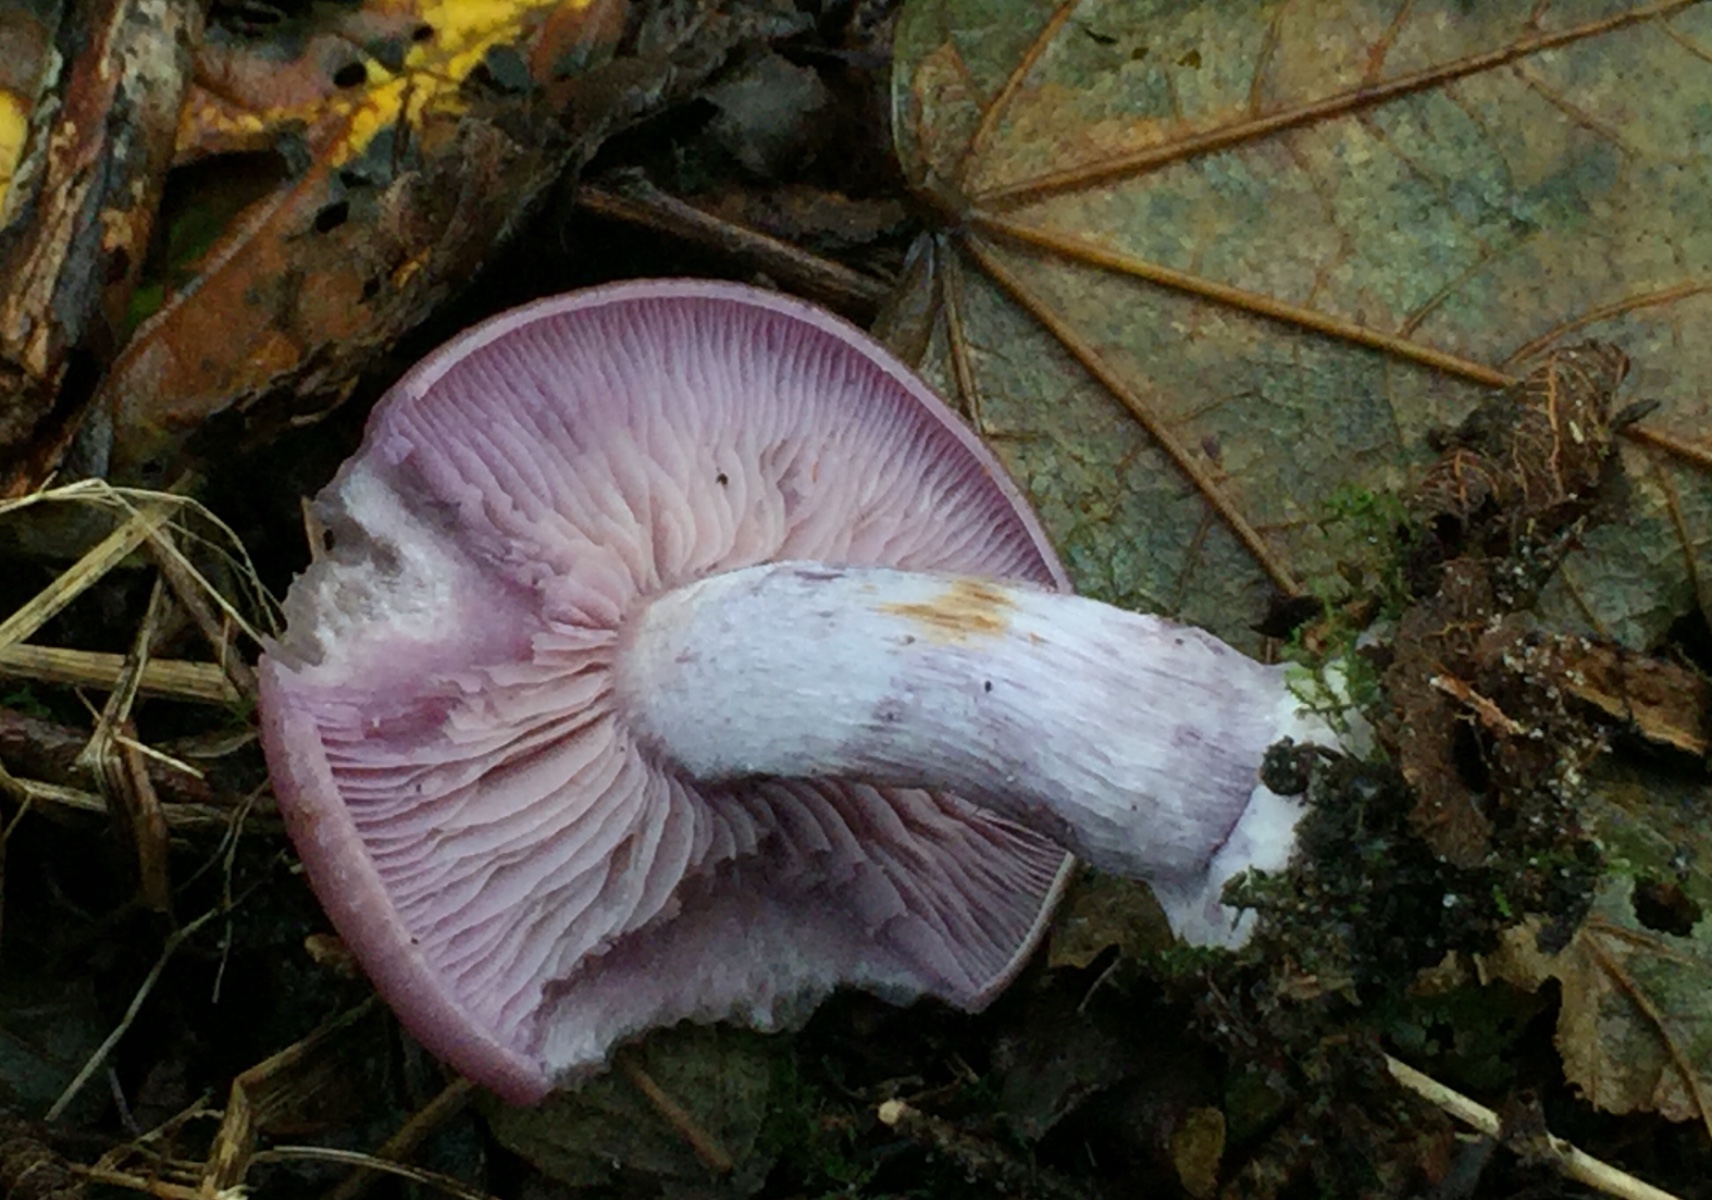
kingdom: Fungi
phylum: Basidiomycota
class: Agaricomycetes
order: Agaricales
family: Tricholomataceae
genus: Lepista
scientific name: Lepista nuda
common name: violet hekseringshat
